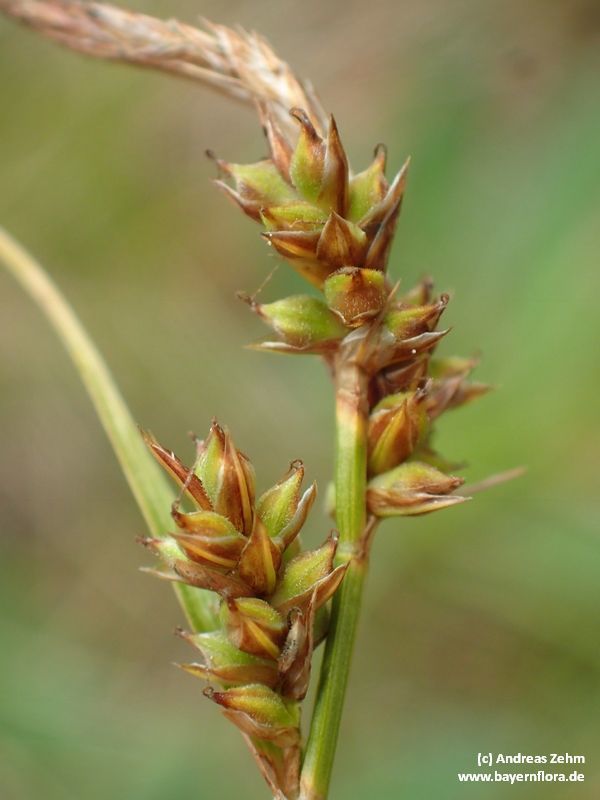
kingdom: Plantae
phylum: Tracheophyta
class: Liliopsida
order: Poales
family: Cyperaceae
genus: Carex
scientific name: Carex pilulifera
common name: Pill sedge
